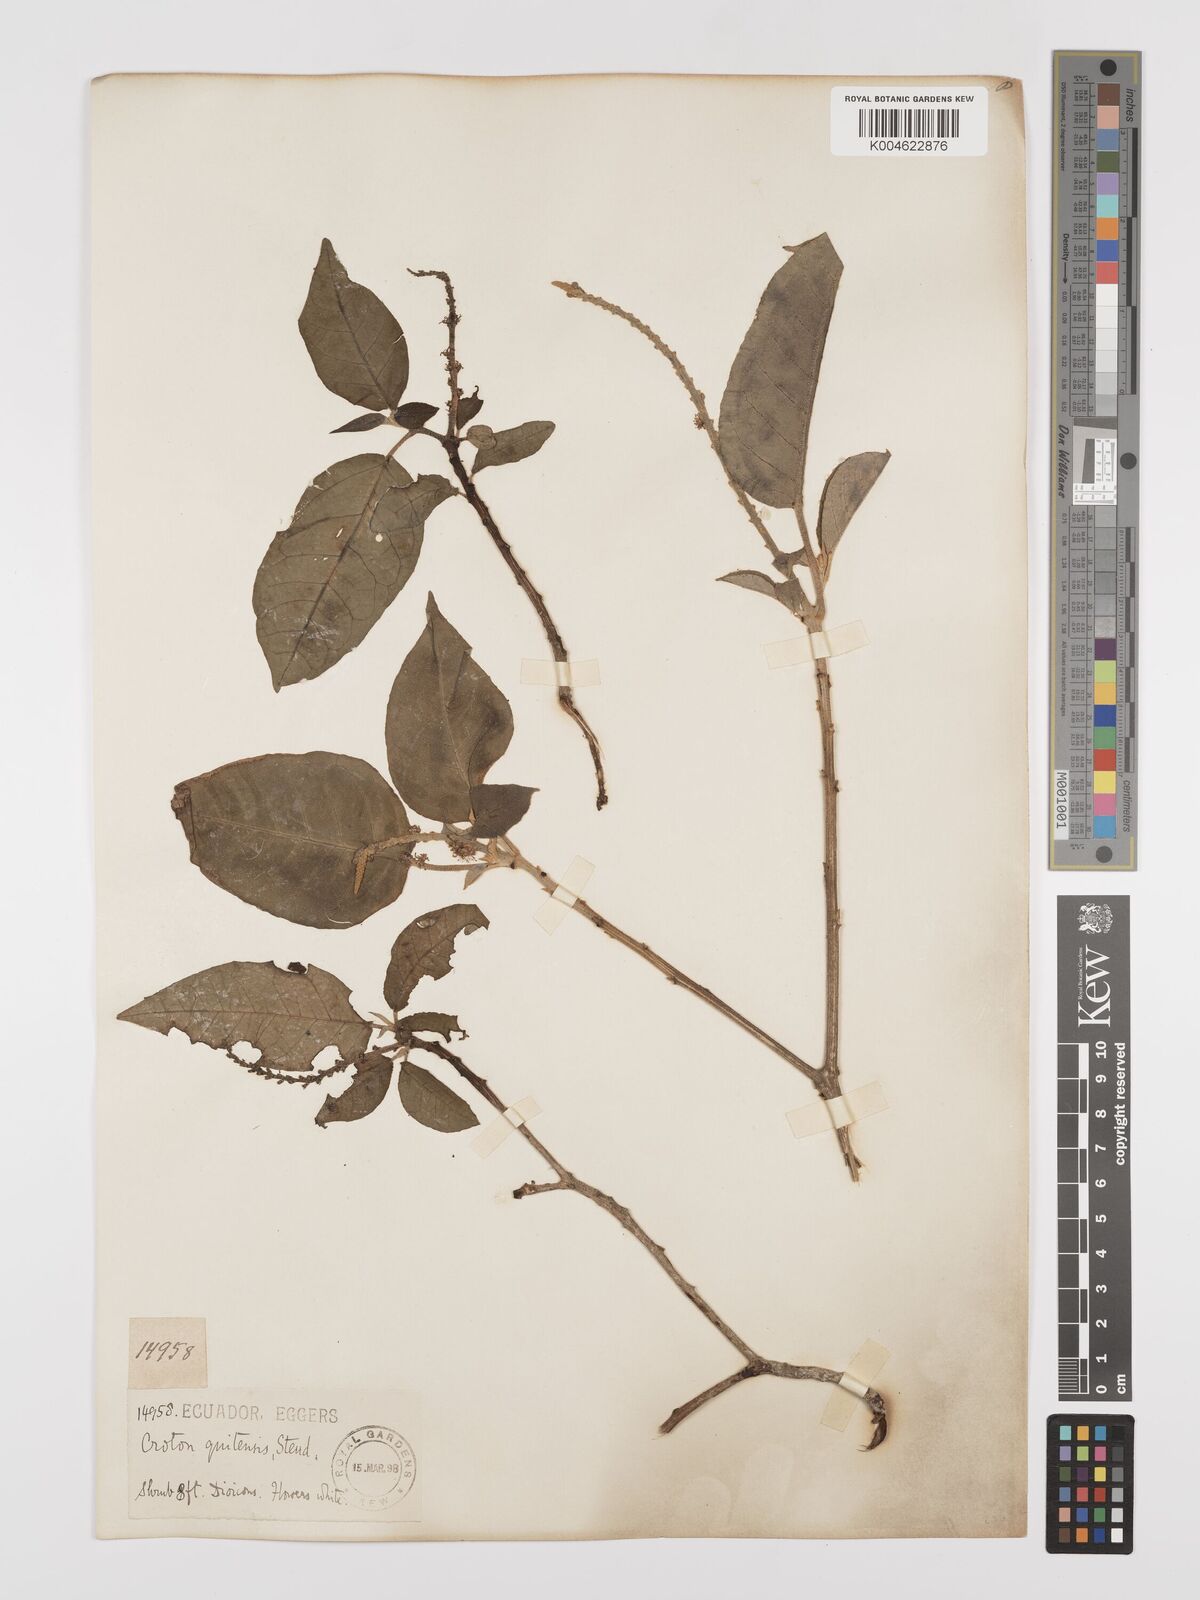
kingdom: Plantae
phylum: Tracheophyta
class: Magnoliopsida
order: Malpighiales
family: Euphorbiaceae
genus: Croton
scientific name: Croton alnifolius
